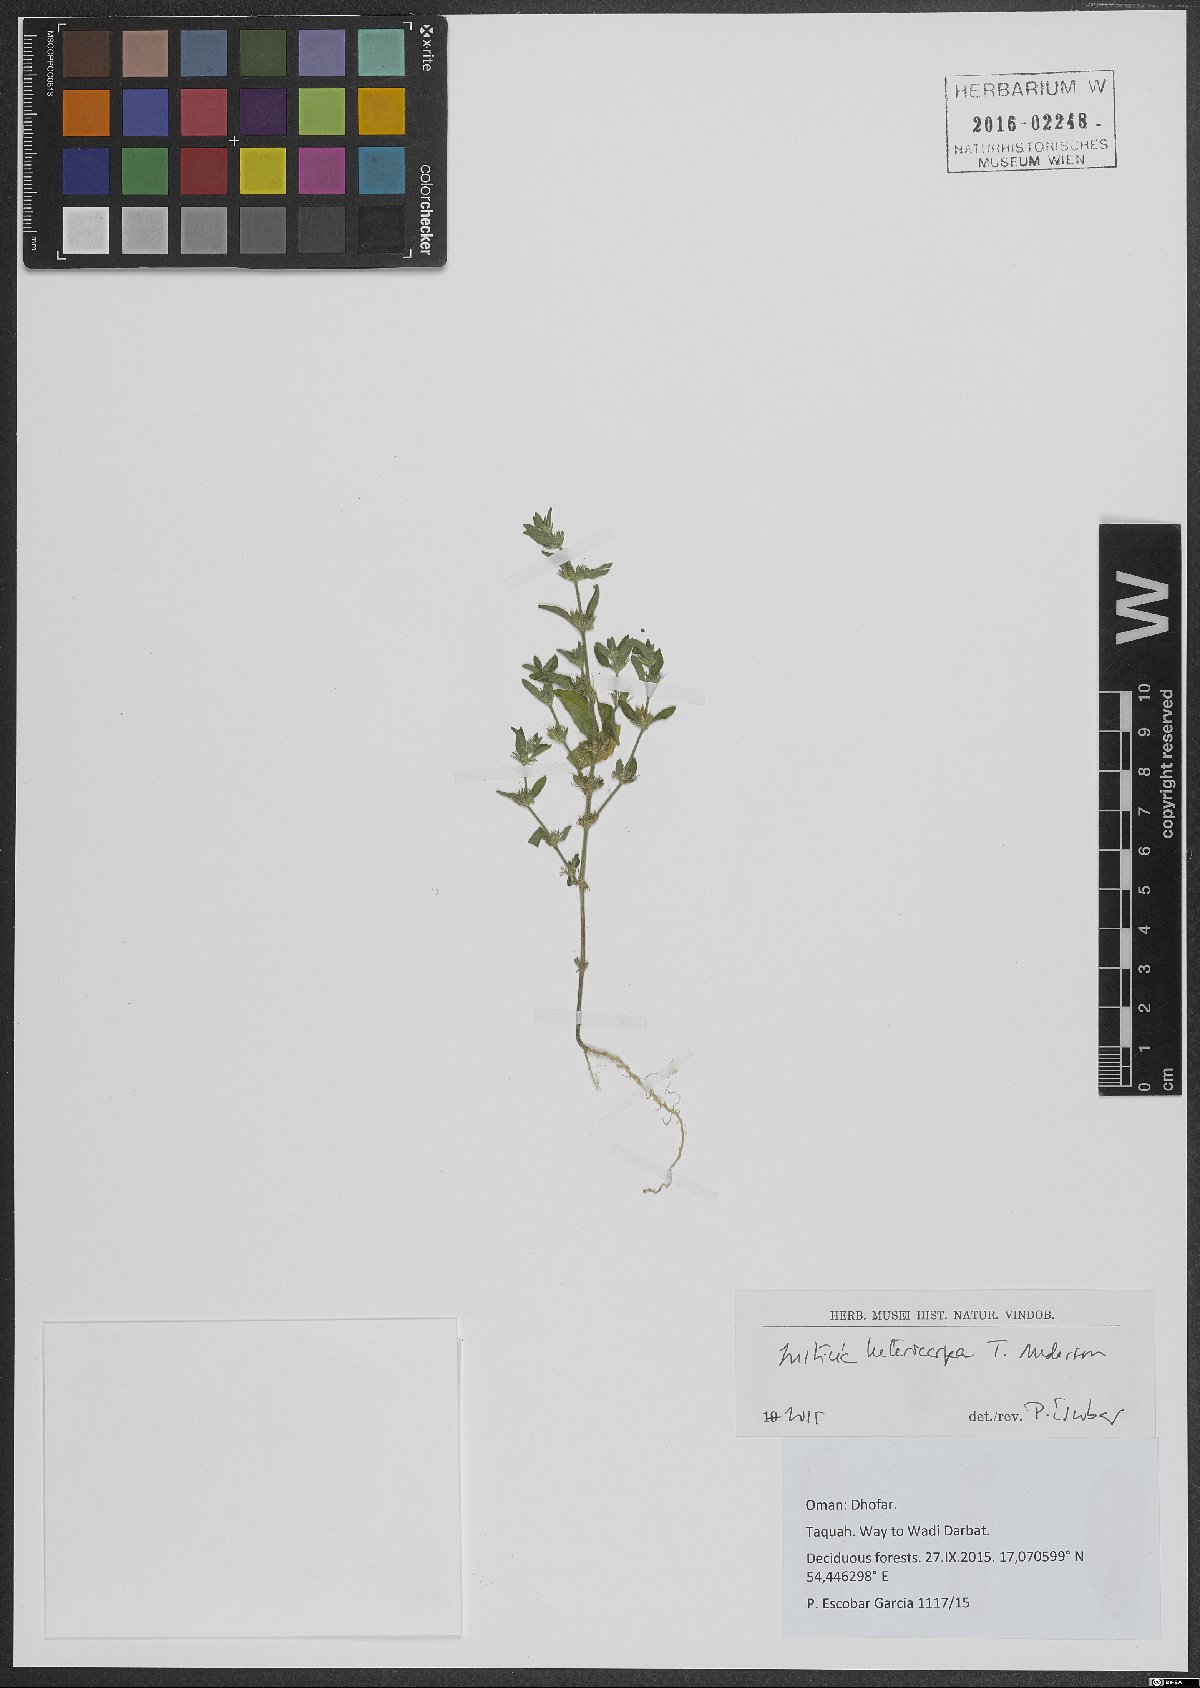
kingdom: Plantae
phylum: Tracheophyta
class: Magnoliopsida
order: Lamiales
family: Acanthaceae
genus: Justicia
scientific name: Justicia heterocarpa
